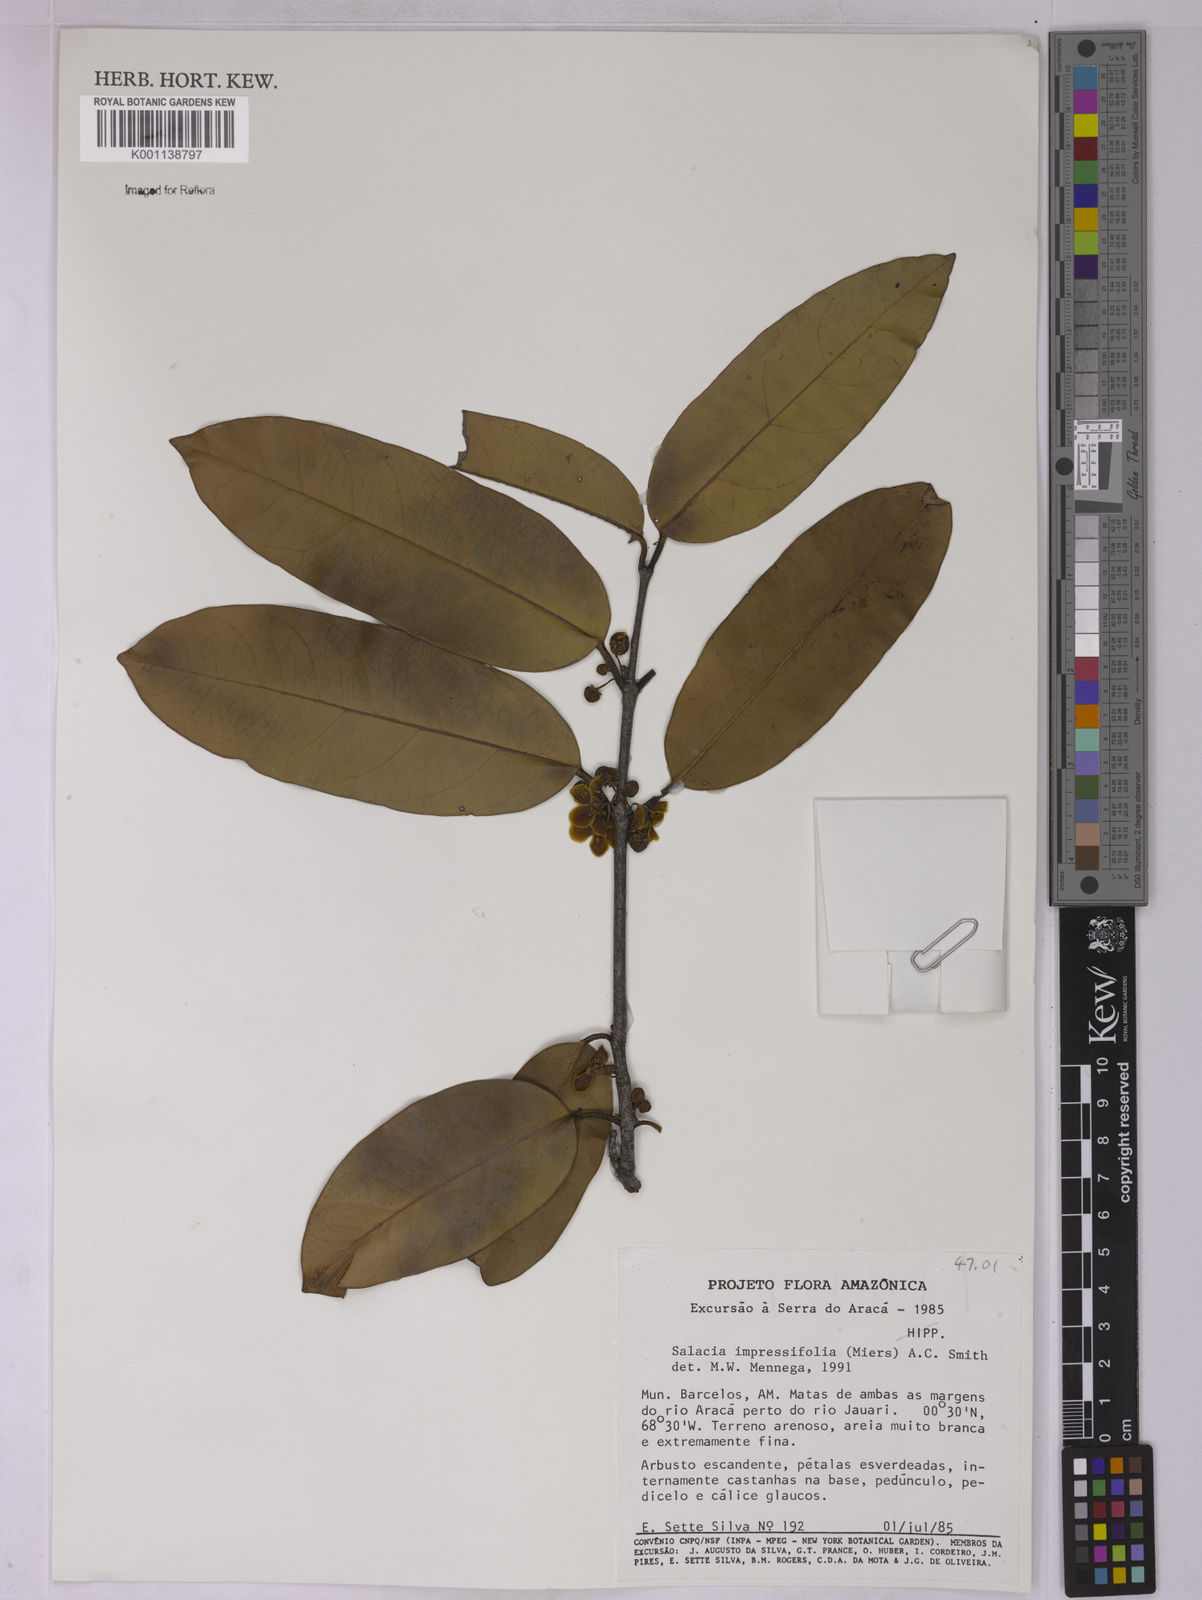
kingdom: Plantae
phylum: Tracheophyta
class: Magnoliopsida
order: Celastrales
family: Celastraceae
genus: Salacia
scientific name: Salacia impressifolia
